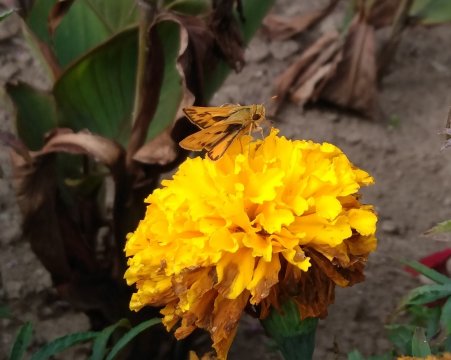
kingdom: Animalia
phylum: Arthropoda
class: Insecta
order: Lepidoptera
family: Hesperiidae
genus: Hylephila
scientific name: Hylephila phyleus
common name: Fiery Skipper
